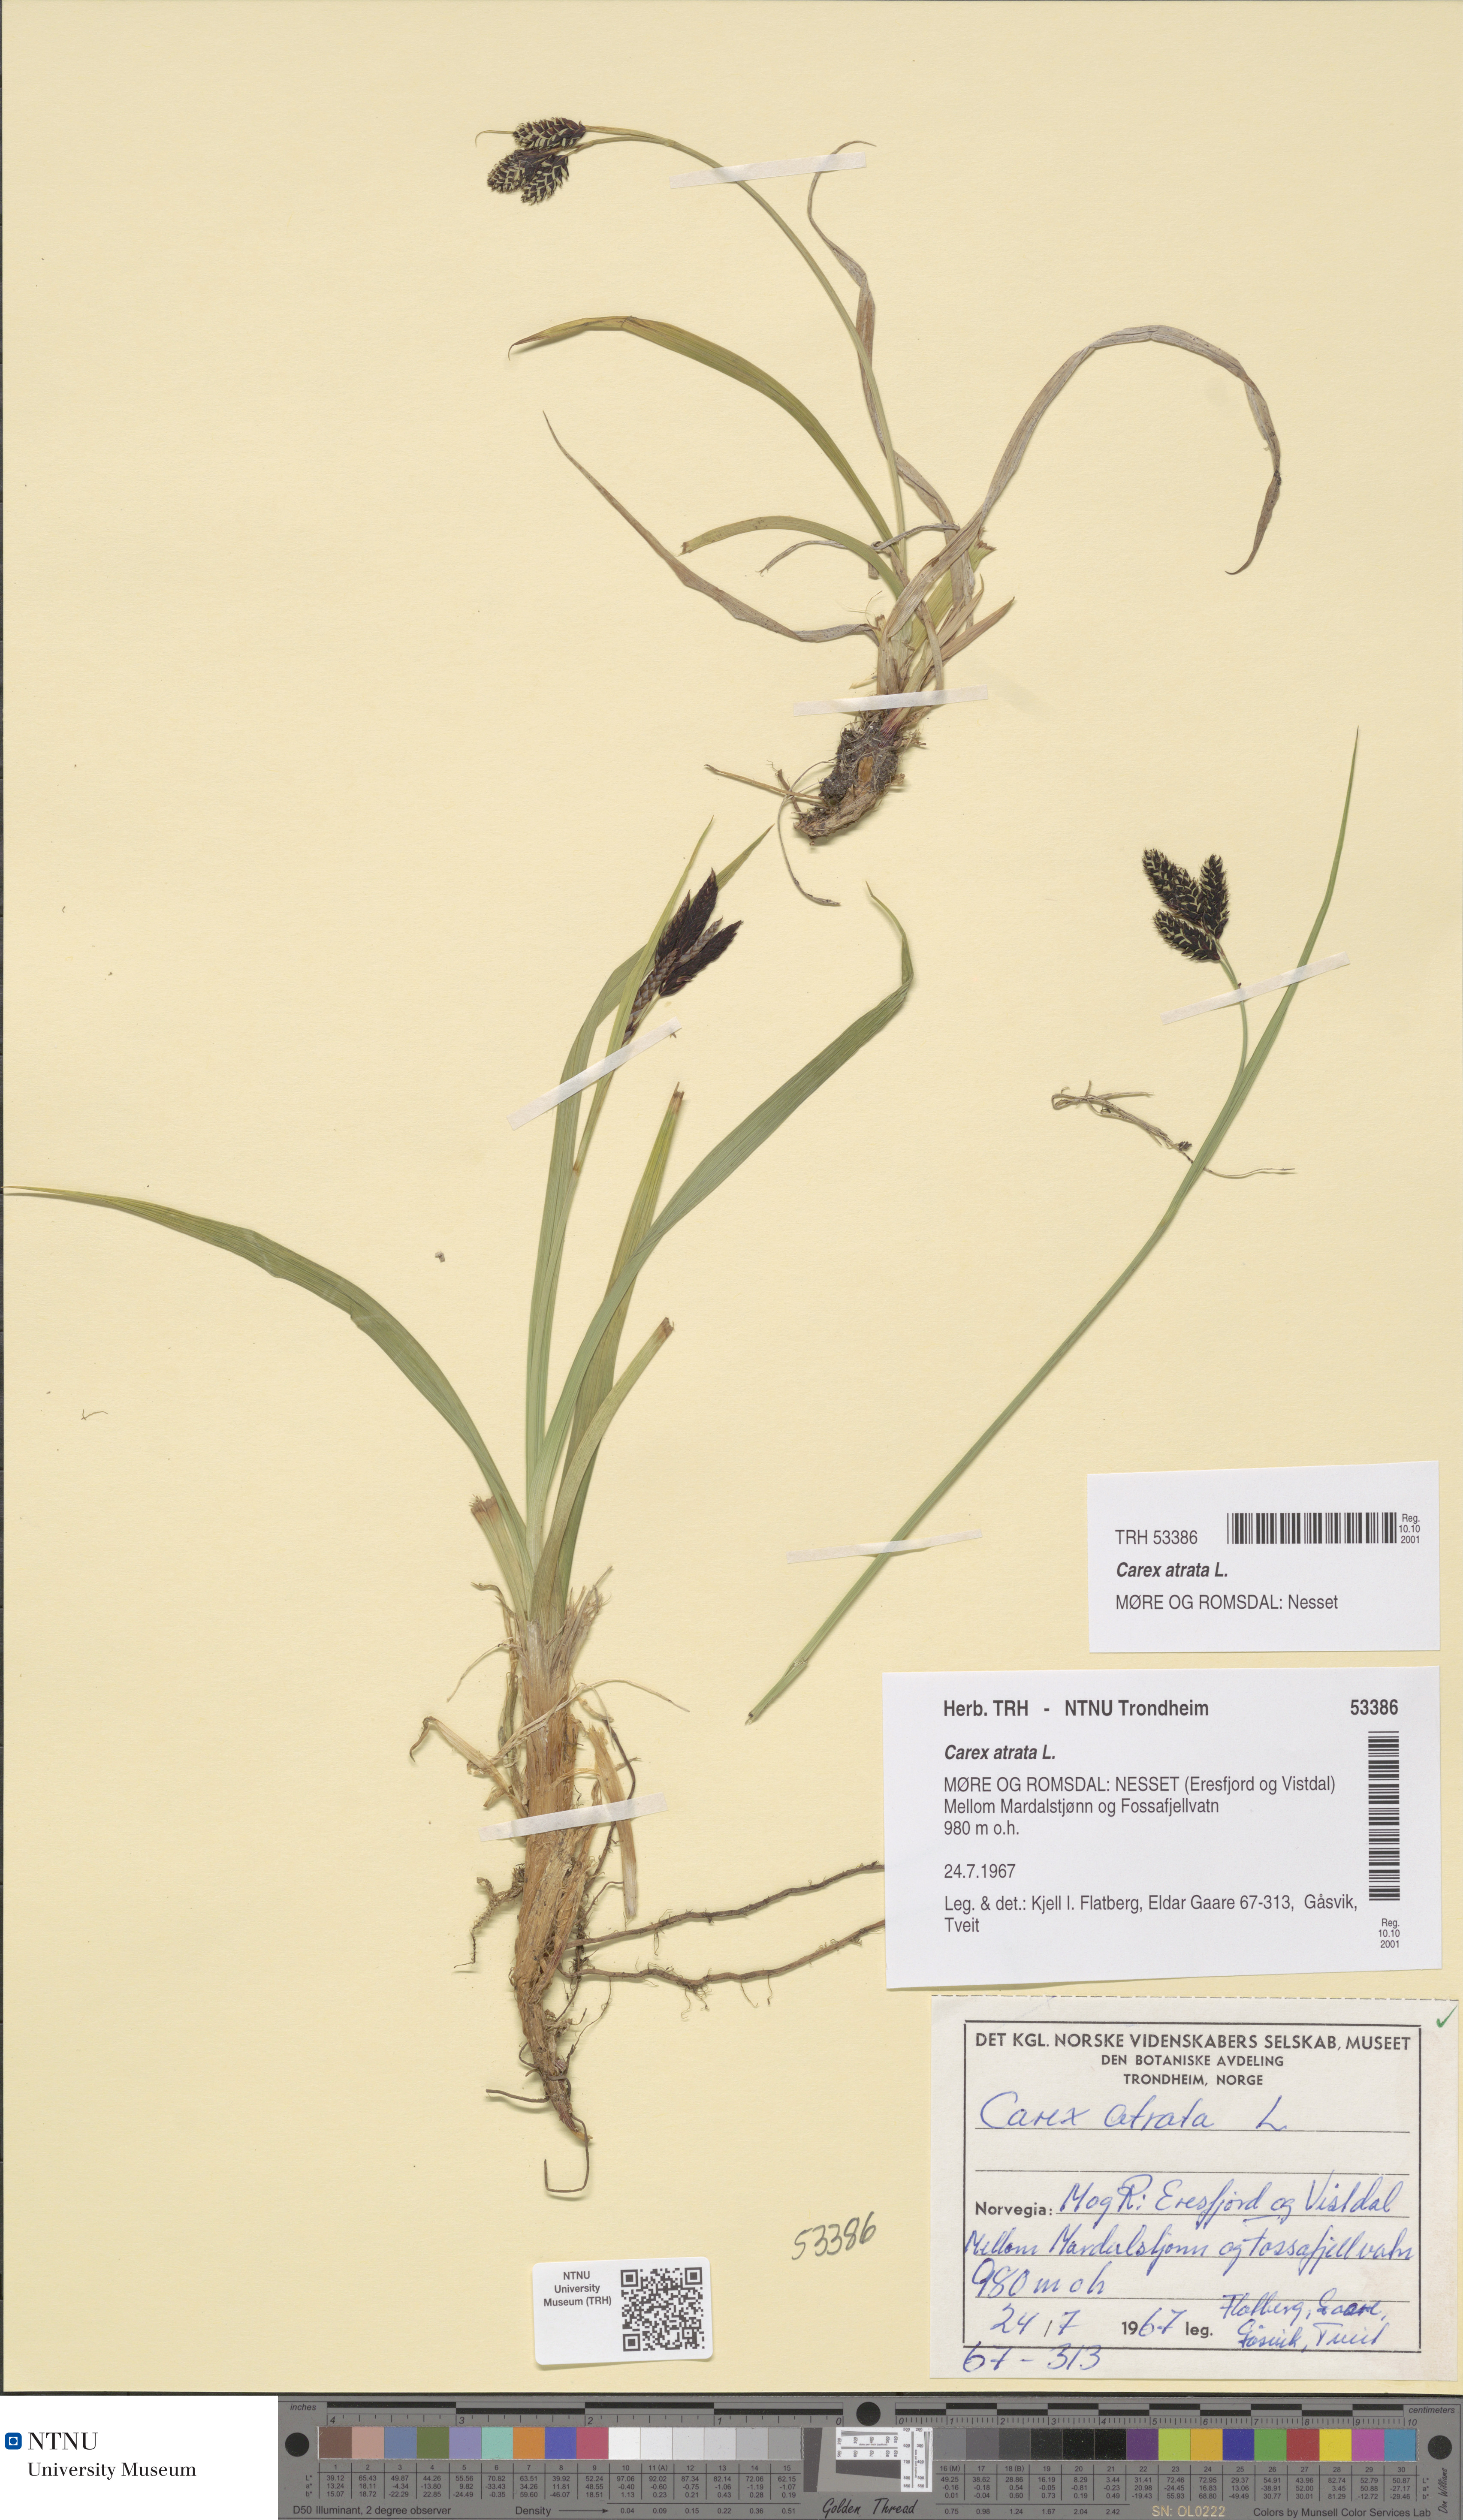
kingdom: Plantae
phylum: Tracheophyta
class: Liliopsida
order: Poales
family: Cyperaceae
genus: Carex
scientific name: Carex atrata
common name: Black alpine sedge
